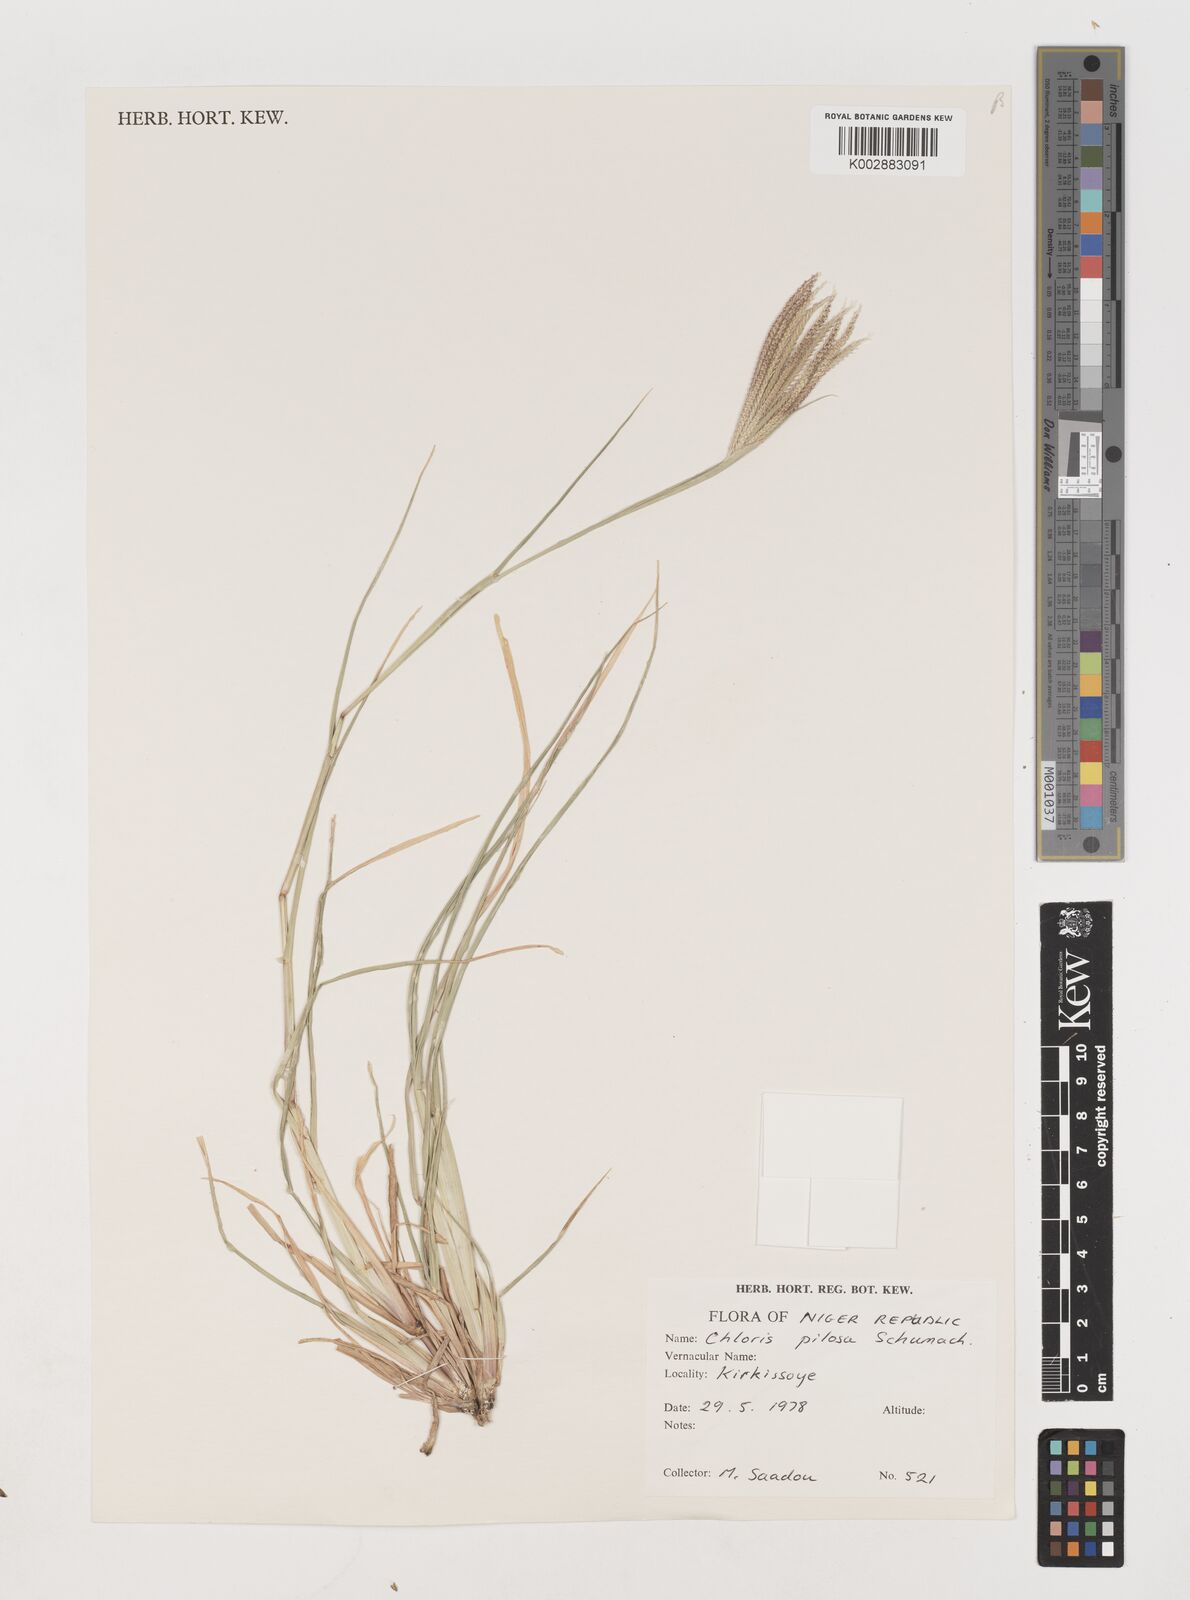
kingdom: Plantae
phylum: Tracheophyta
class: Liliopsida
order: Poales
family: Poaceae
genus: Chloris
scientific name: Chloris pilosa
